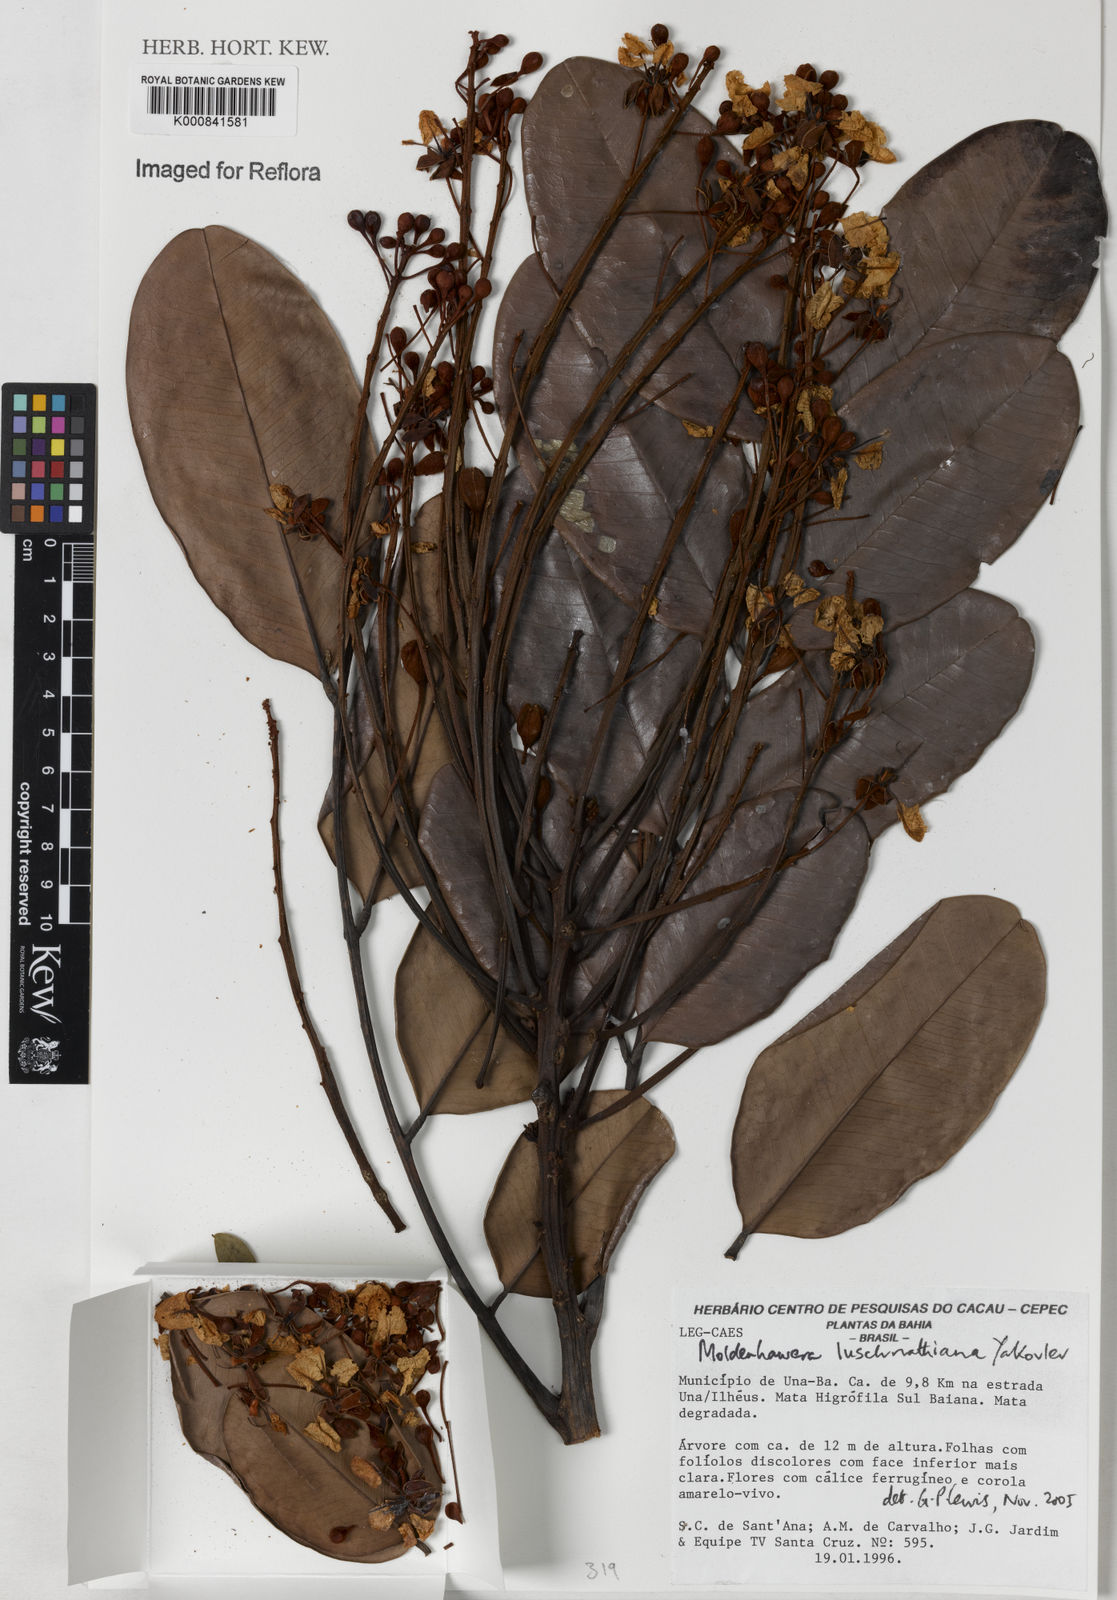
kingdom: Plantae
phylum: Tracheophyta
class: Magnoliopsida
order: Fabales
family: Fabaceae
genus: Moldenhawera
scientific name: Moldenhawera lushnathiana
